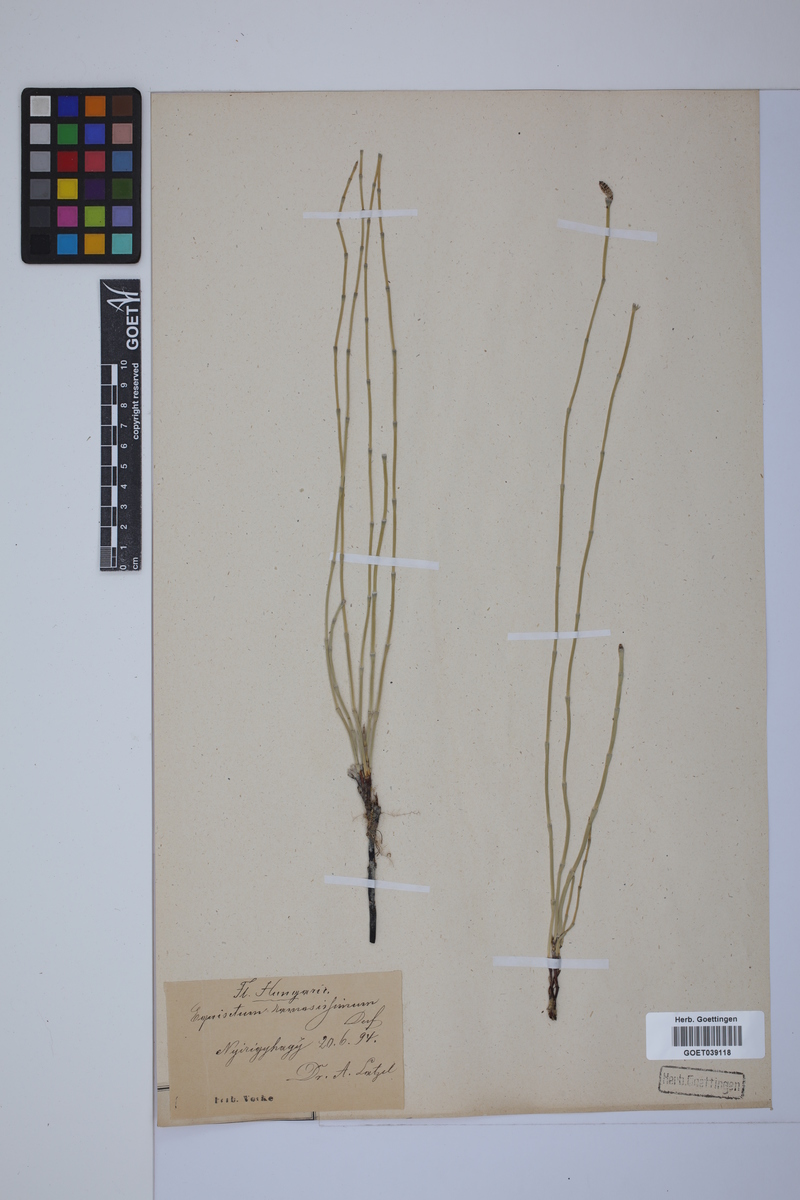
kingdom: Plantae
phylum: Tracheophyta
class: Polypodiopsida
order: Equisetales
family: Equisetaceae
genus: Equisetum
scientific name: Equisetum giganteum
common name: Giant horsetail
